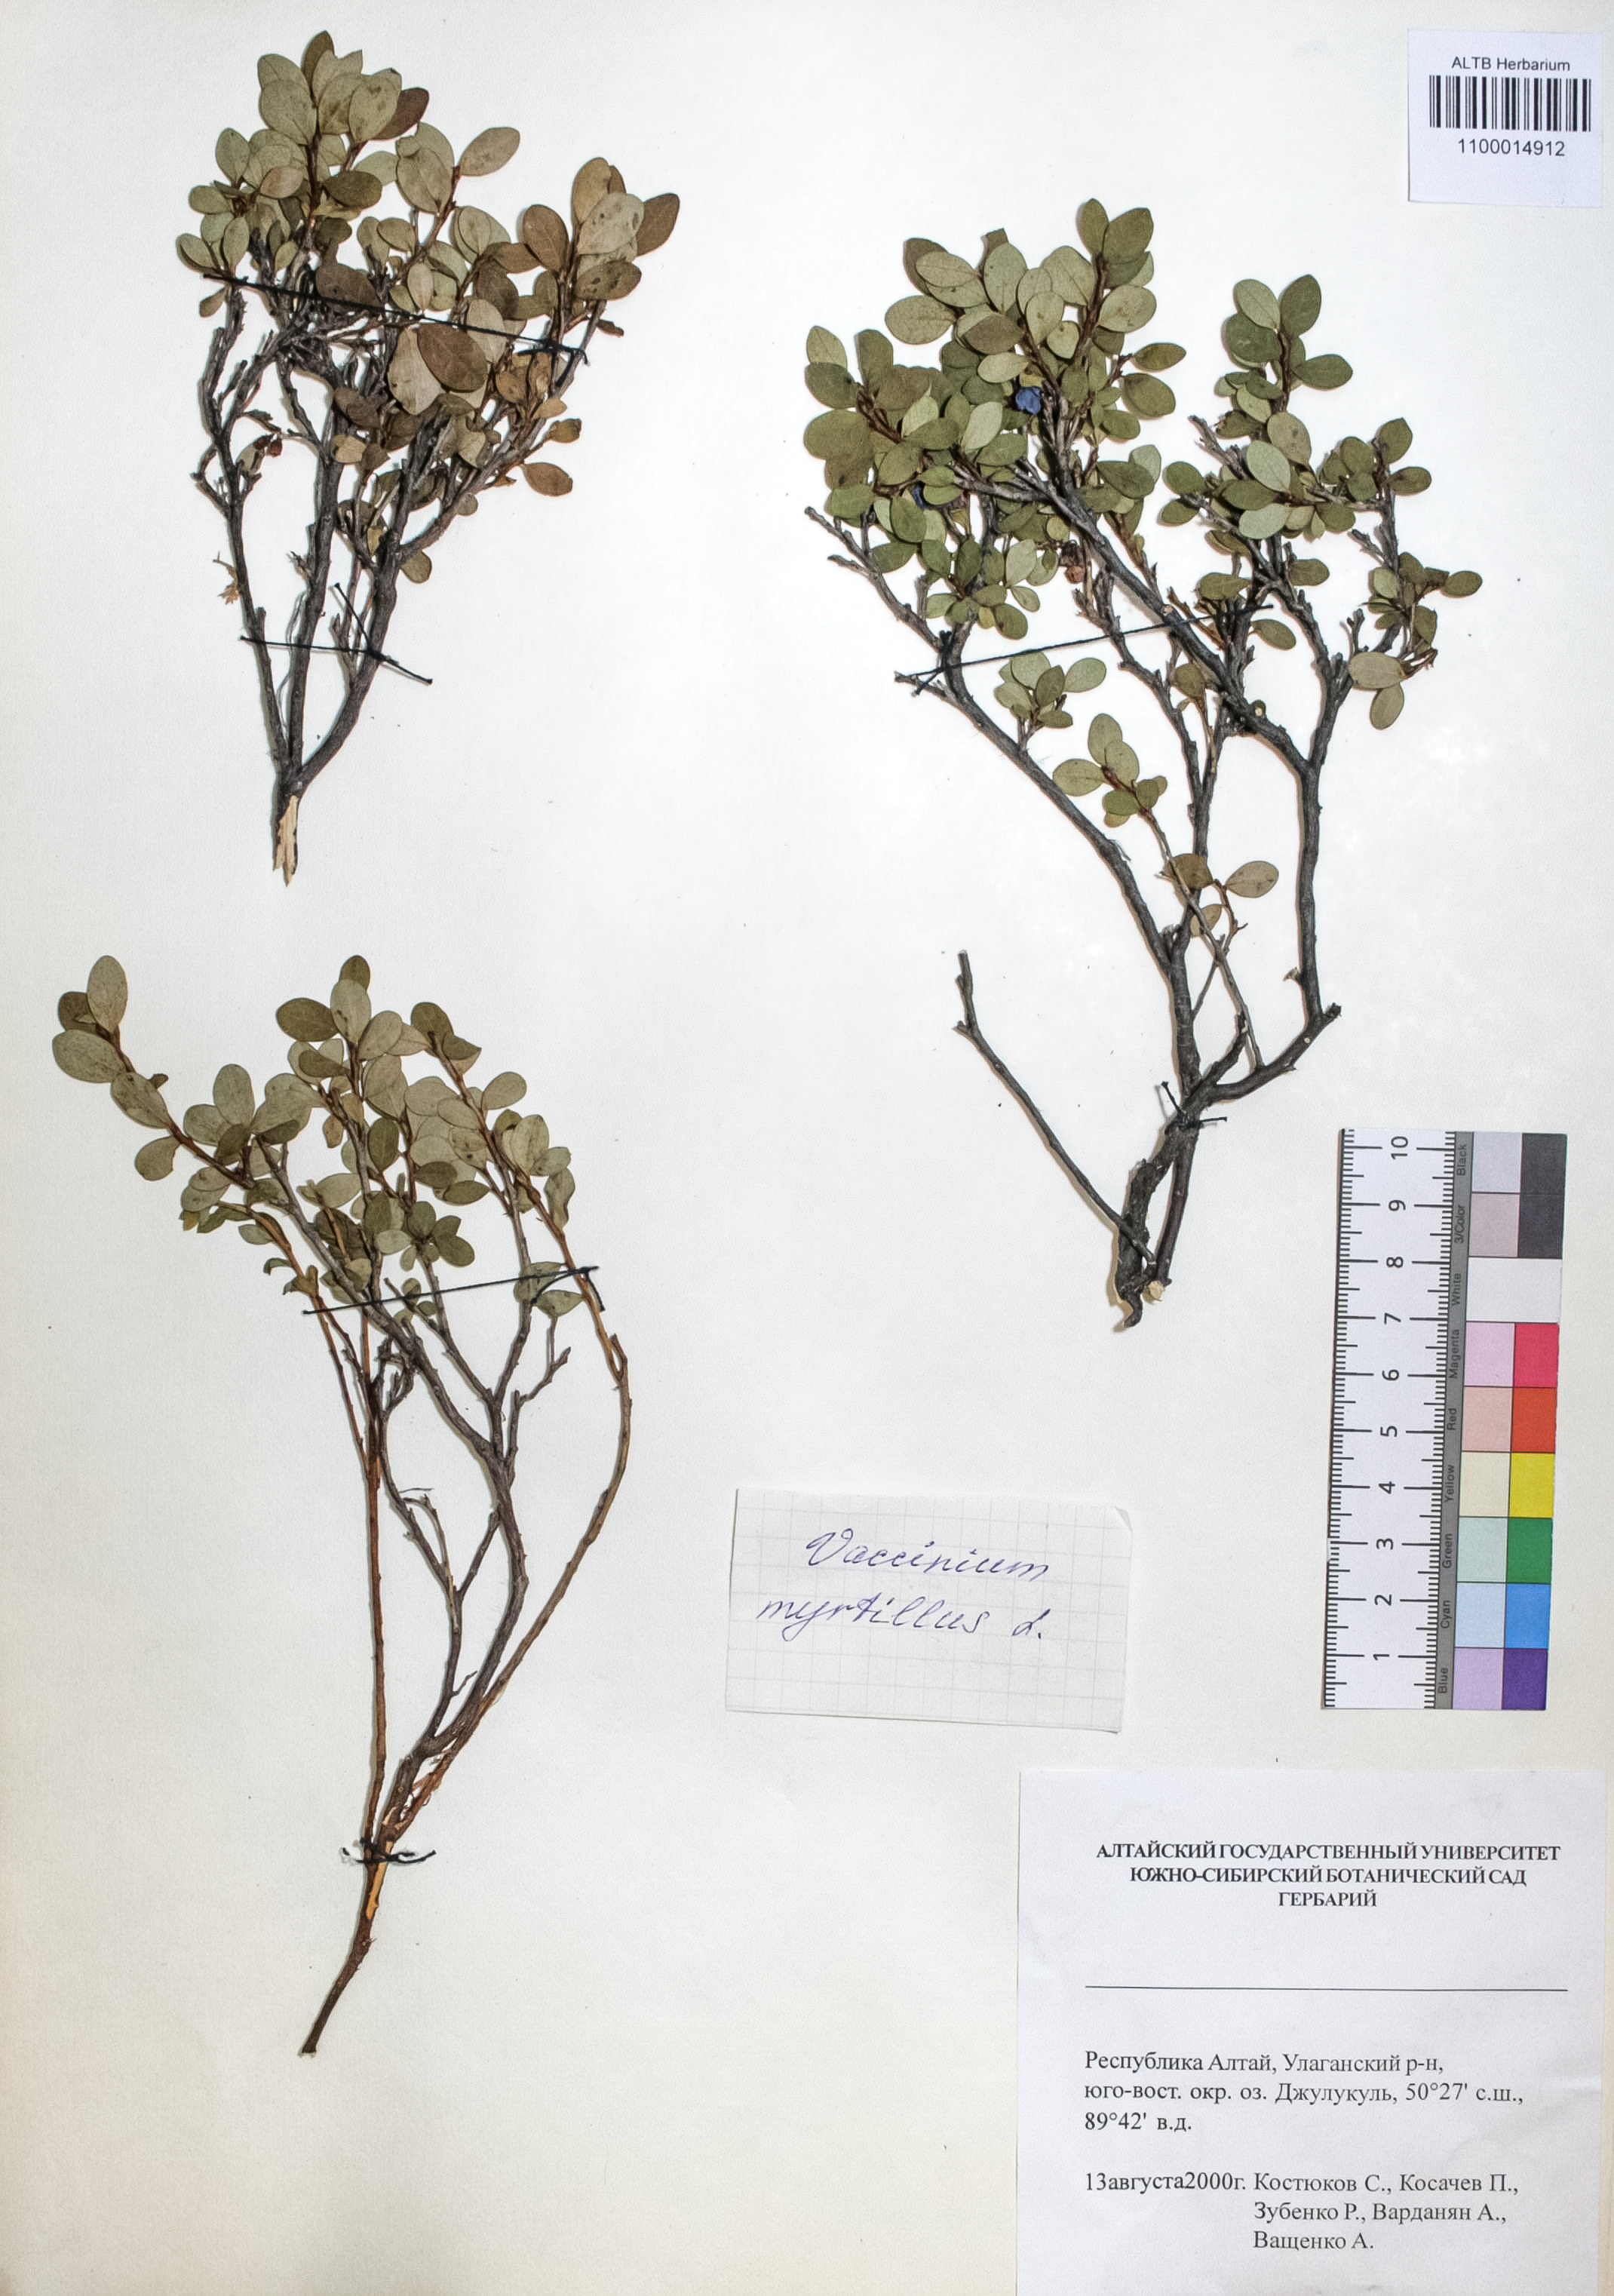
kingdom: Plantae
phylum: Tracheophyta
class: Magnoliopsida
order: Ericales
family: Ericaceae
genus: Vaccinium
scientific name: Vaccinium myrtillus
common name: Bilberry
